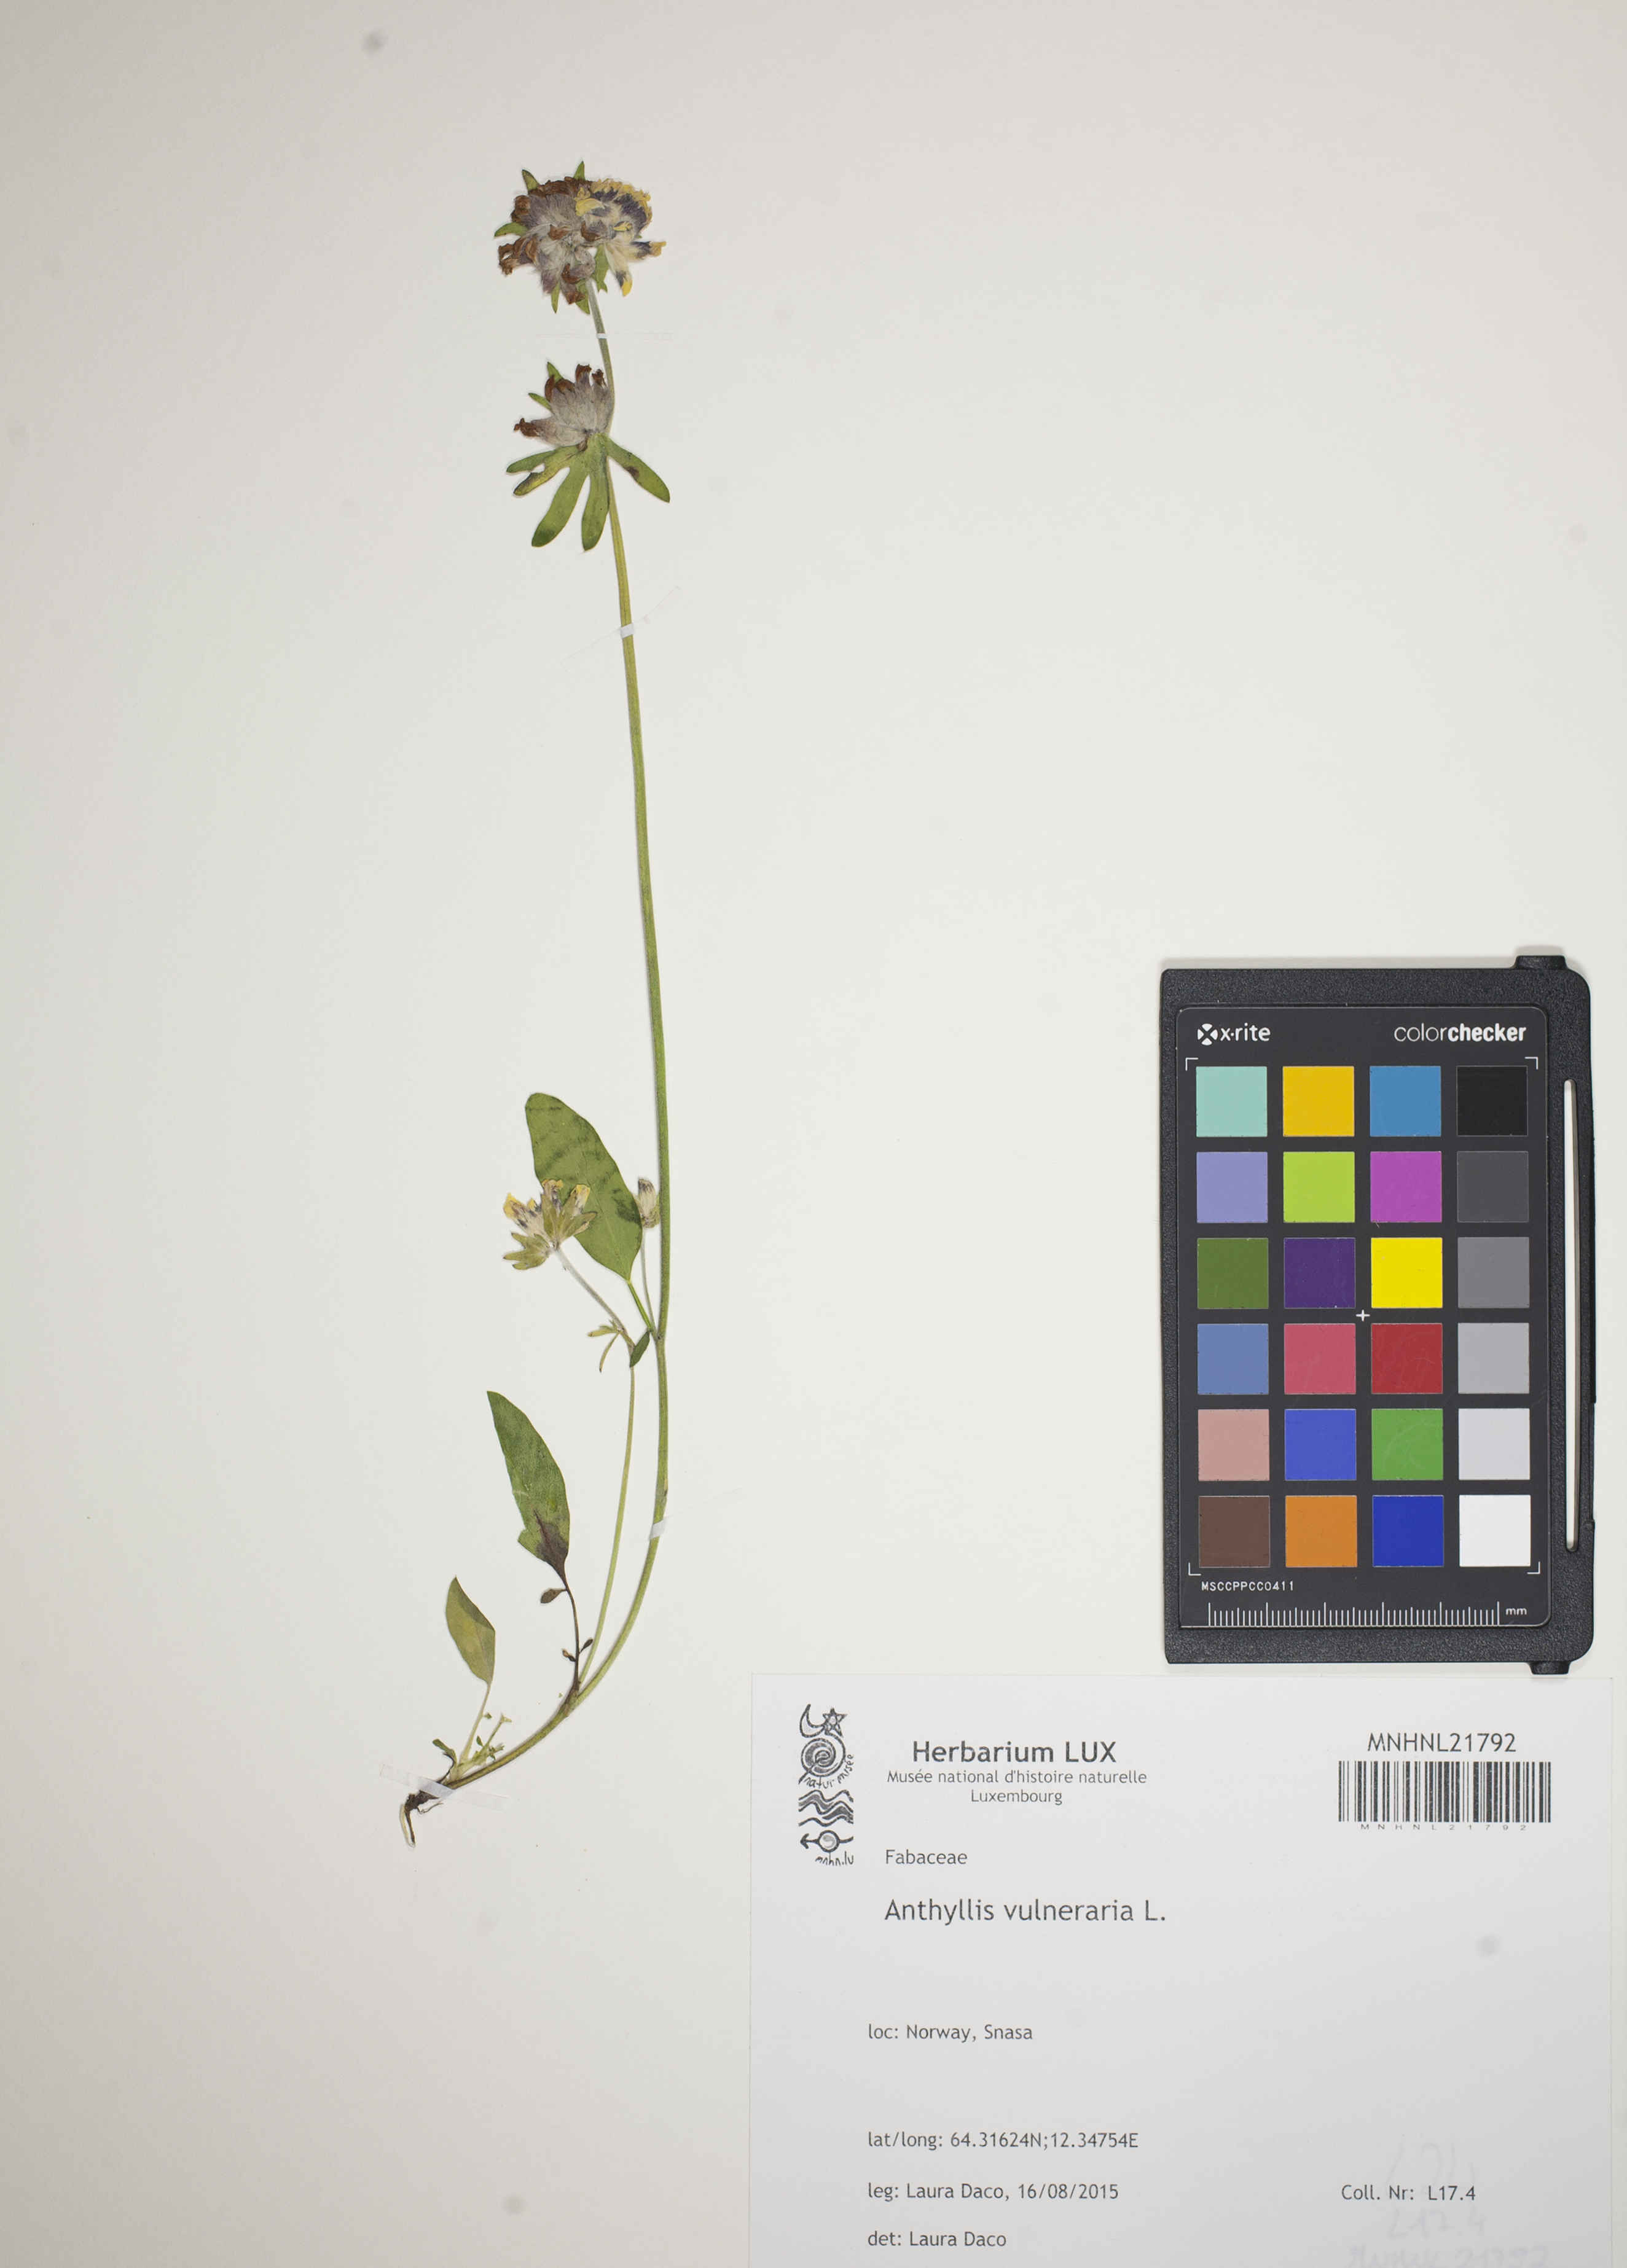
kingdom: Plantae
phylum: Tracheophyta
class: Magnoliopsida
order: Fabales
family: Fabaceae
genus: Anthyllis
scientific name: Anthyllis vulneraria
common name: Kidney vetch
